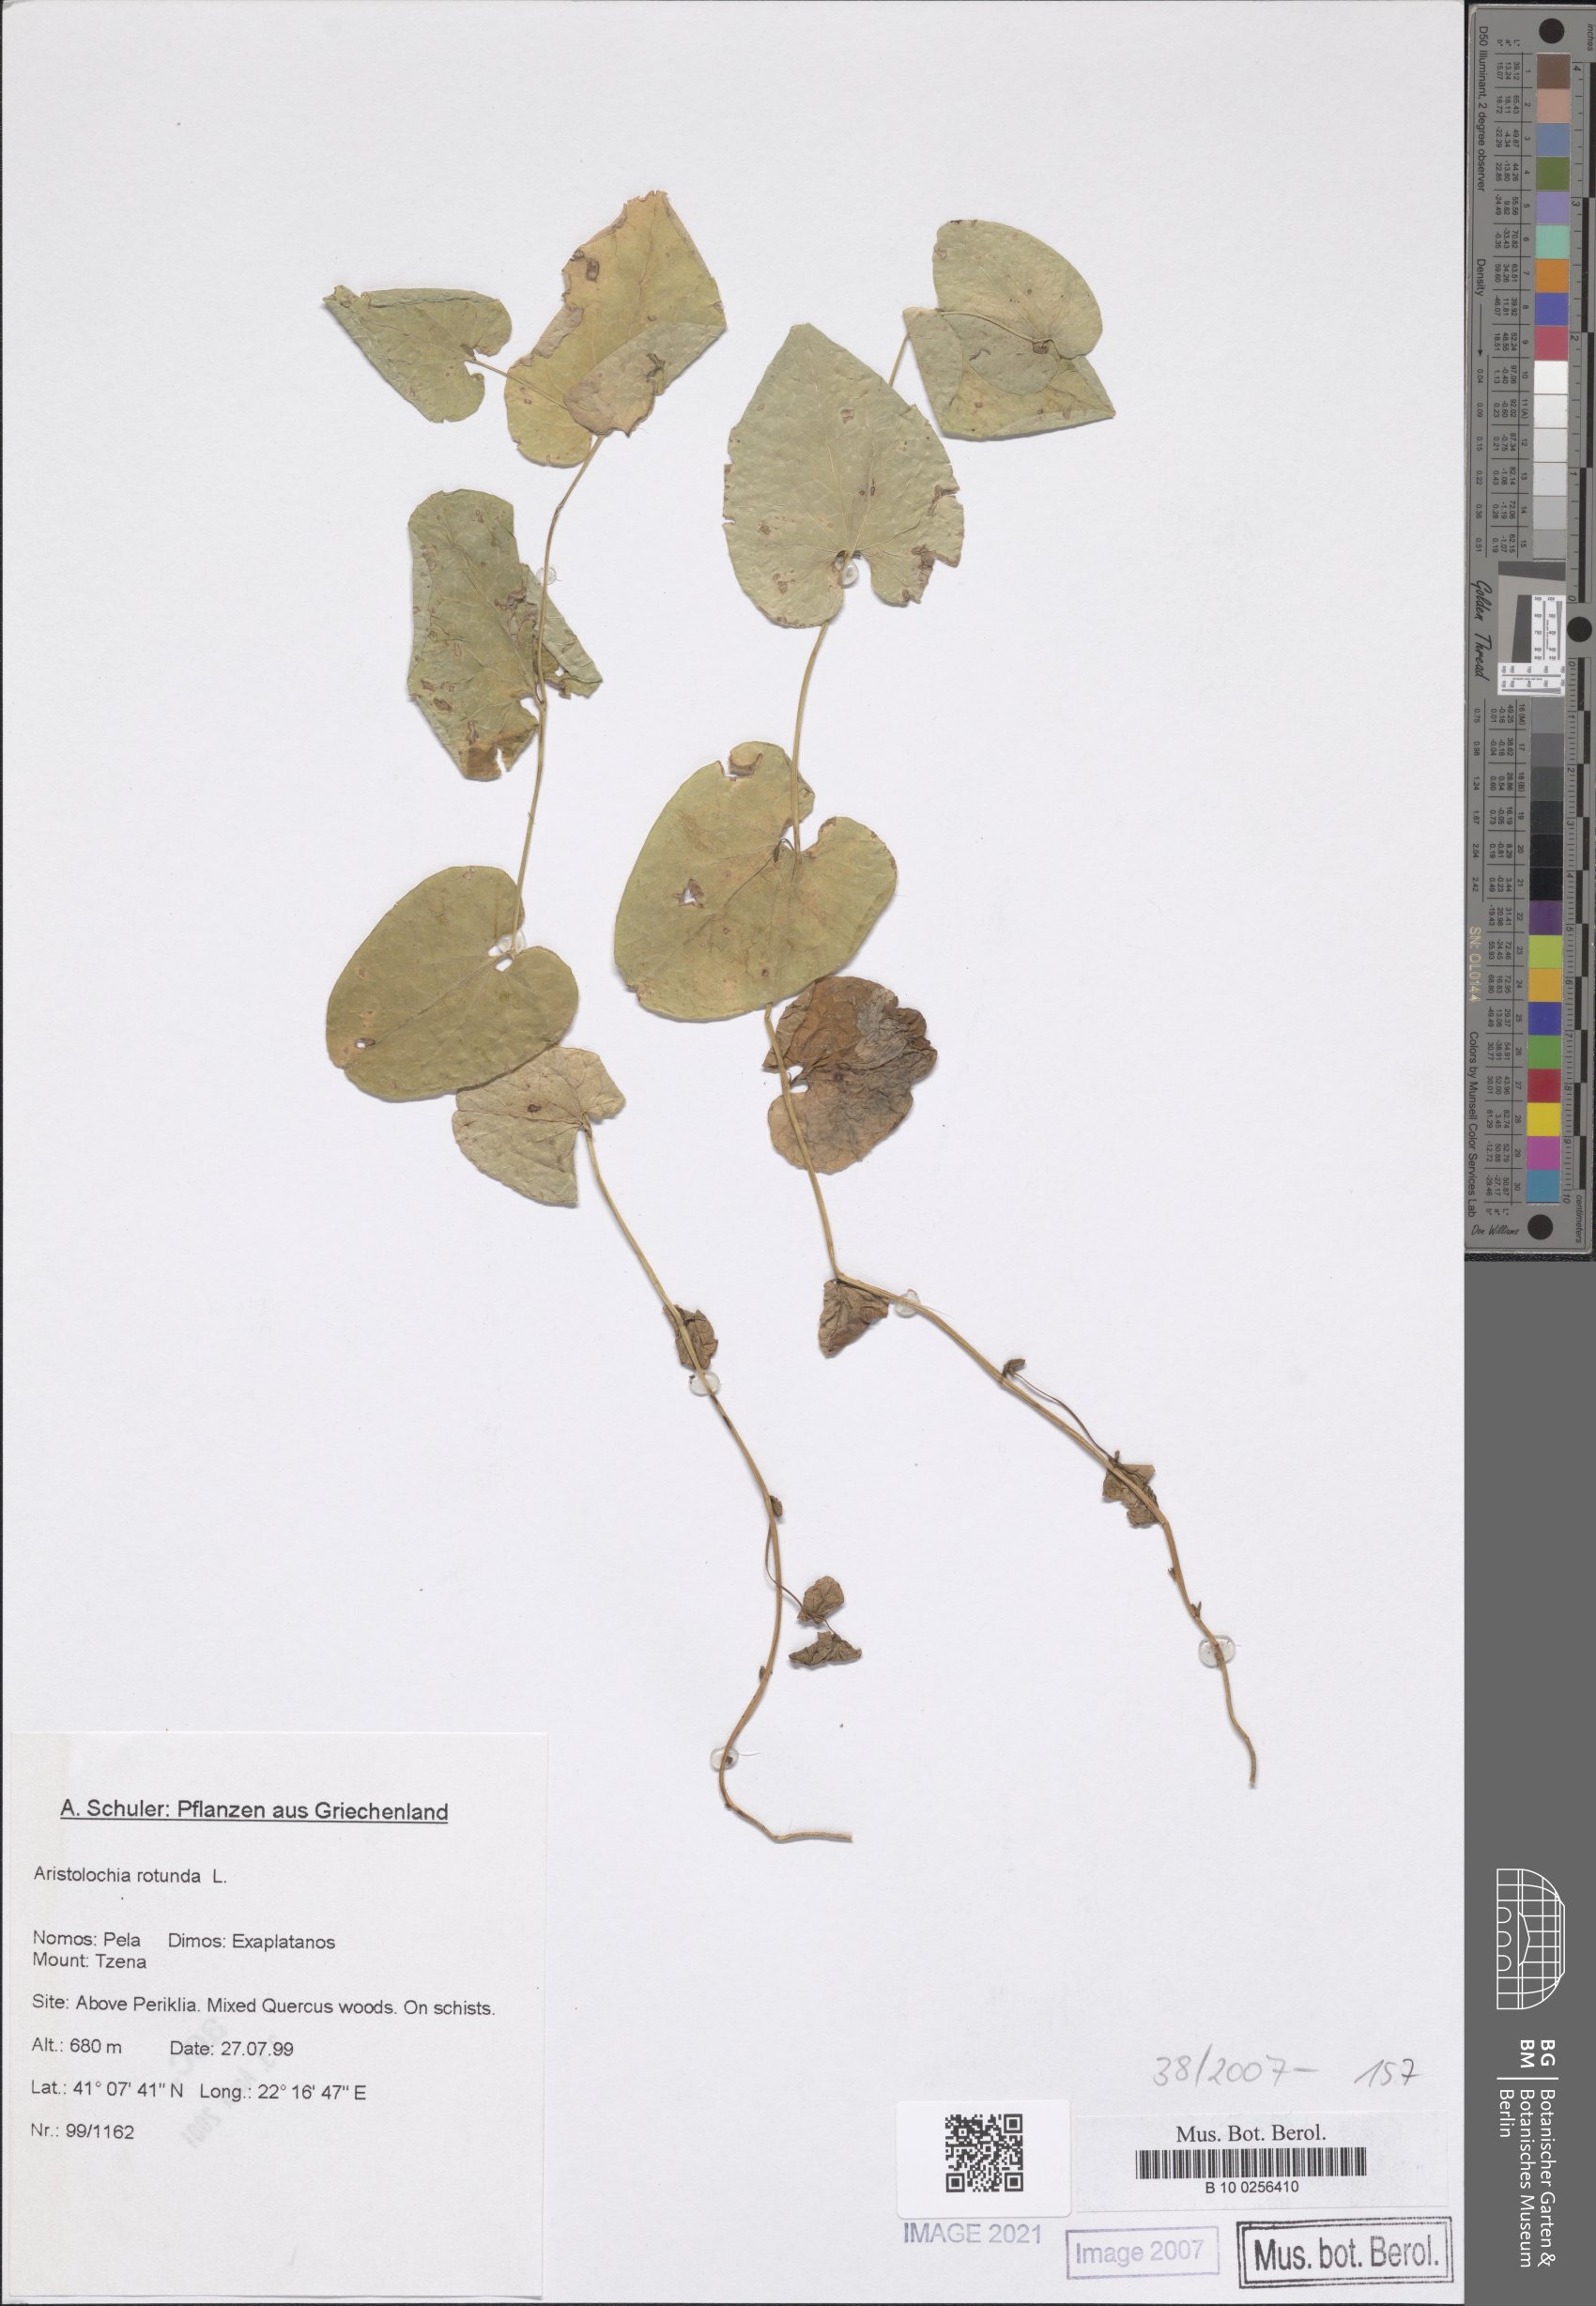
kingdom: Plantae
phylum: Tracheophyta
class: Magnoliopsida
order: Piperales
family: Aristolochiaceae
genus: Aristolochia
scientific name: Aristolochia rotunda
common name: Smearwort
